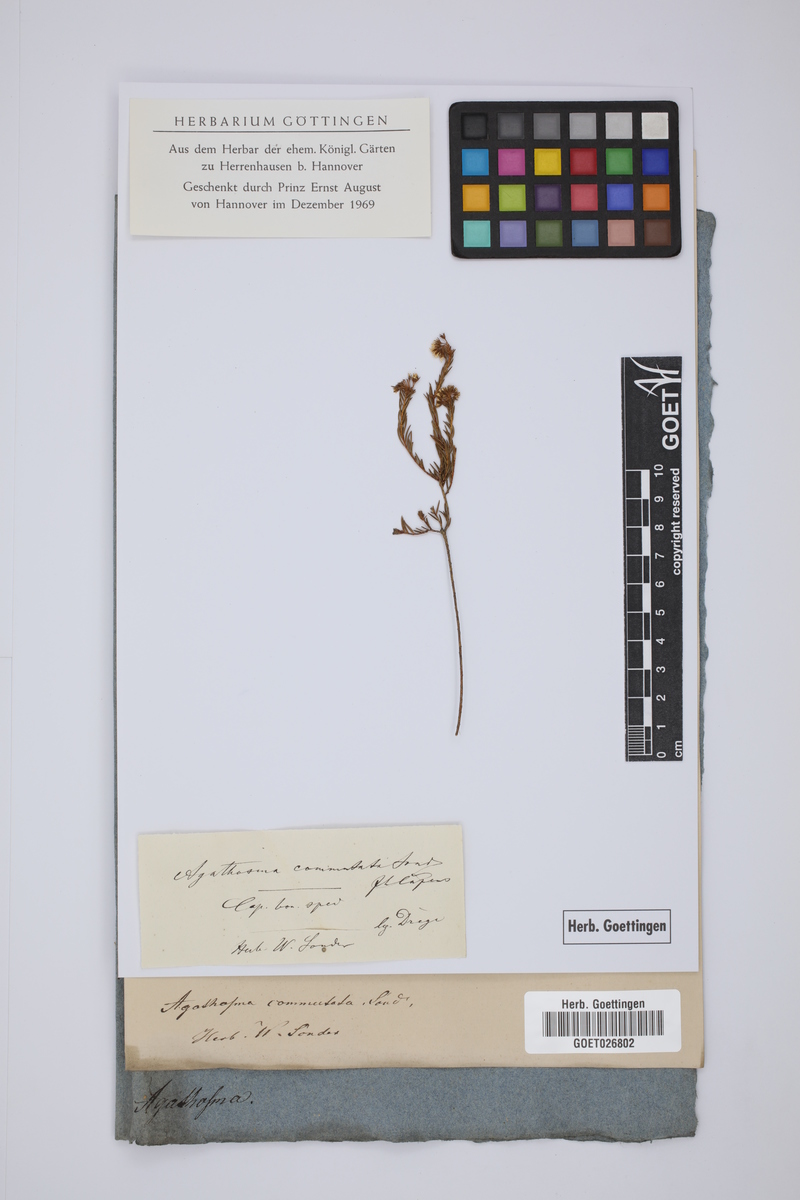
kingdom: Plantae
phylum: Tracheophyta
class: Magnoliopsida
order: Sapindales
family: Rutaceae
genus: Agathosma
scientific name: Agathosma virgata
